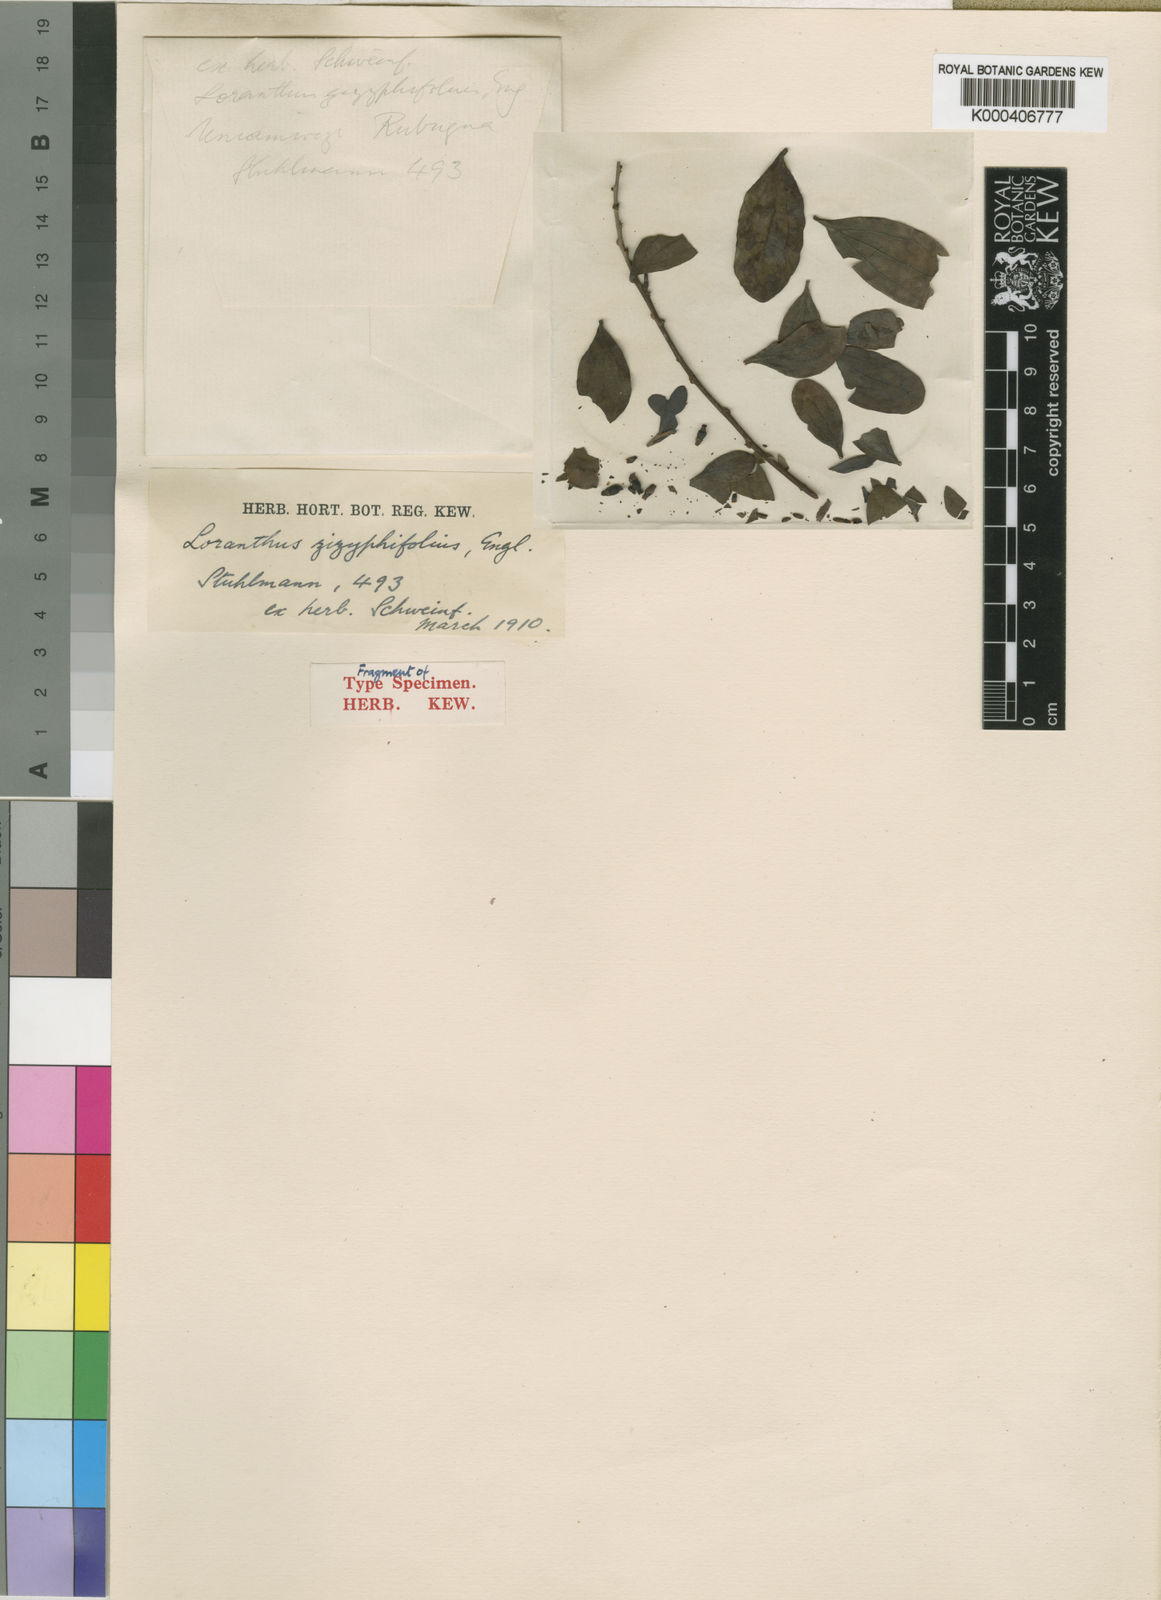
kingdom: Plantae
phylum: Tracheophyta
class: Magnoliopsida
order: Santalales
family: Loranthaceae
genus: Agelanthus
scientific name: Agelanthus zizyphifolius
